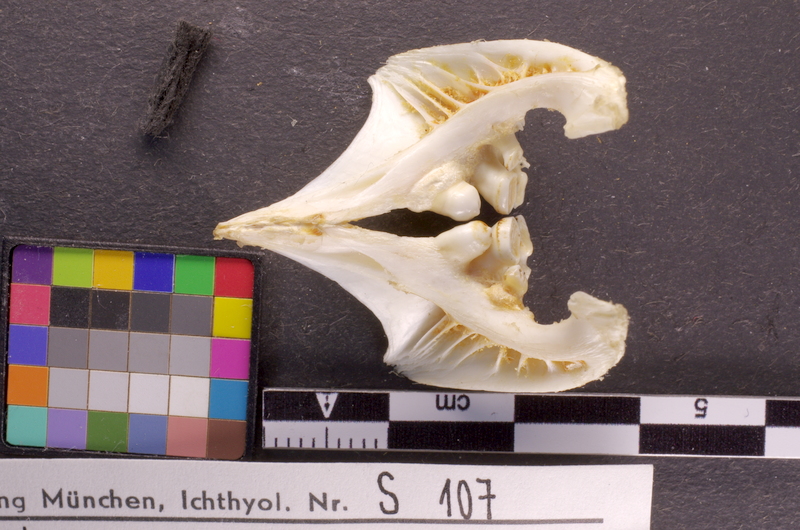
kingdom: Animalia
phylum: Chordata
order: Cypriniformes
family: Cyprinidae
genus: Cyprinus
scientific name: Cyprinus carpio
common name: Common carp
